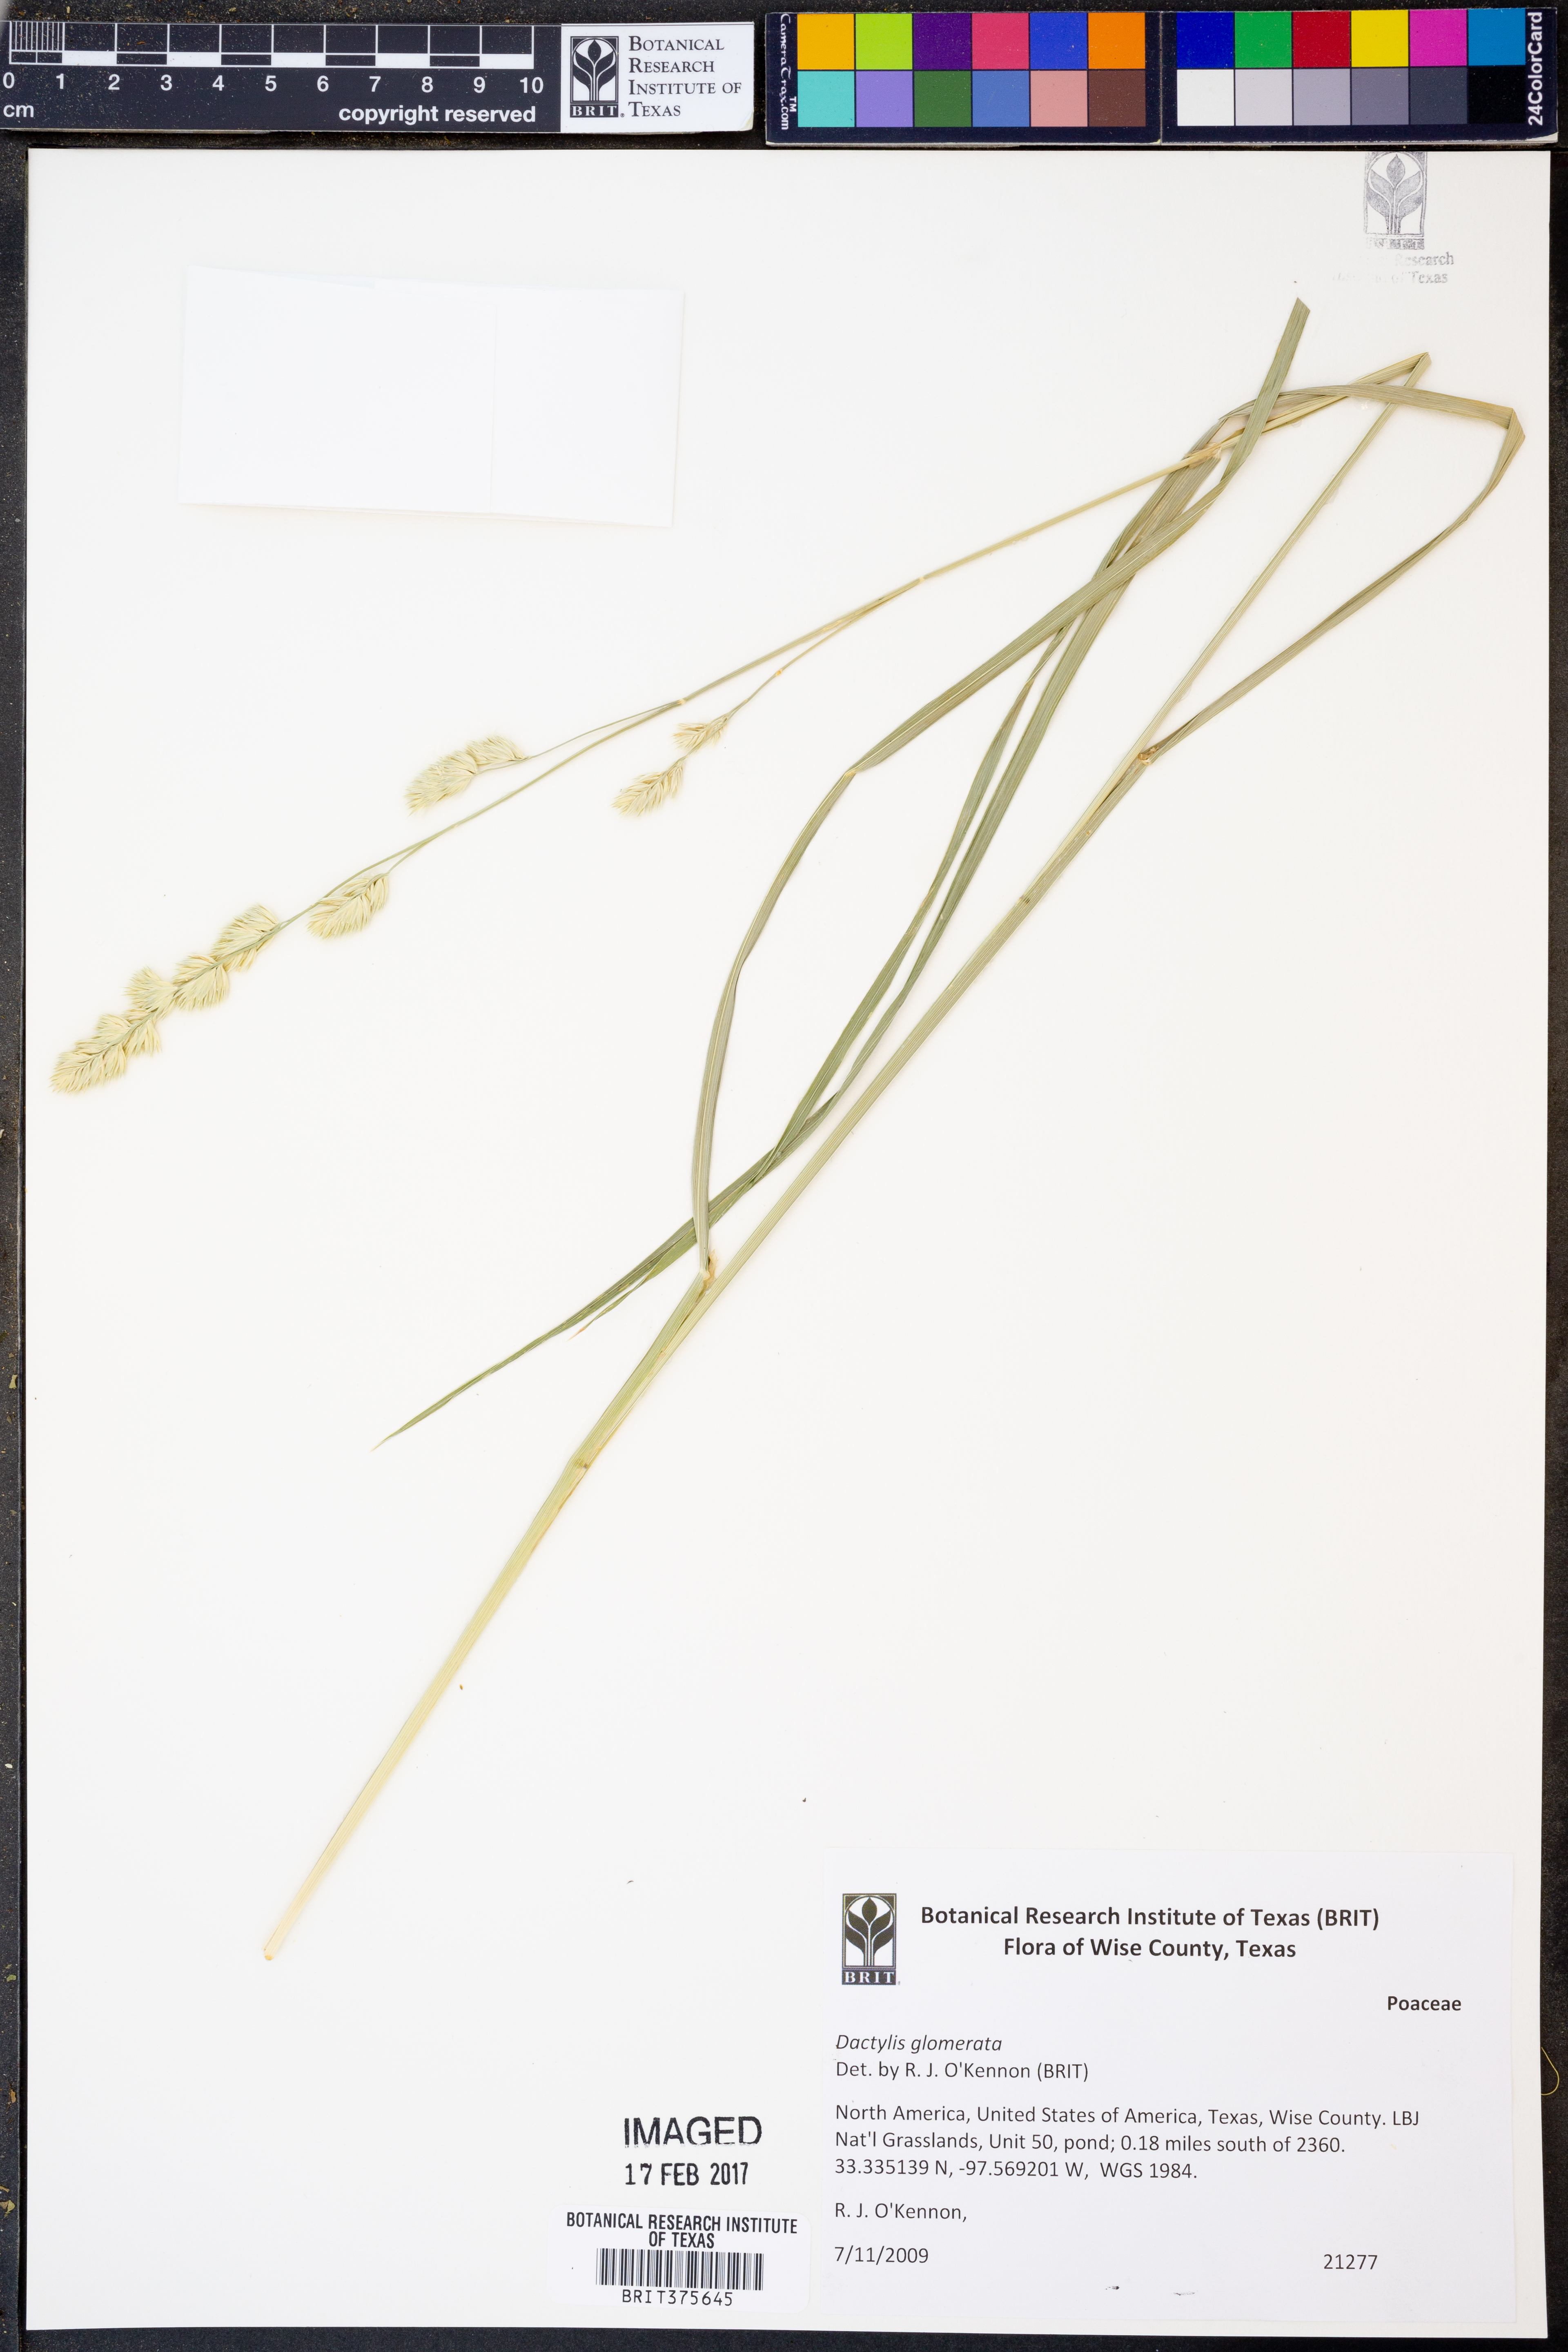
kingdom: Plantae
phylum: Tracheophyta
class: Liliopsida
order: Poales
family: Poaceae
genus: Dactylis
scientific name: Dactylis glomerata
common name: Orchardgrass
